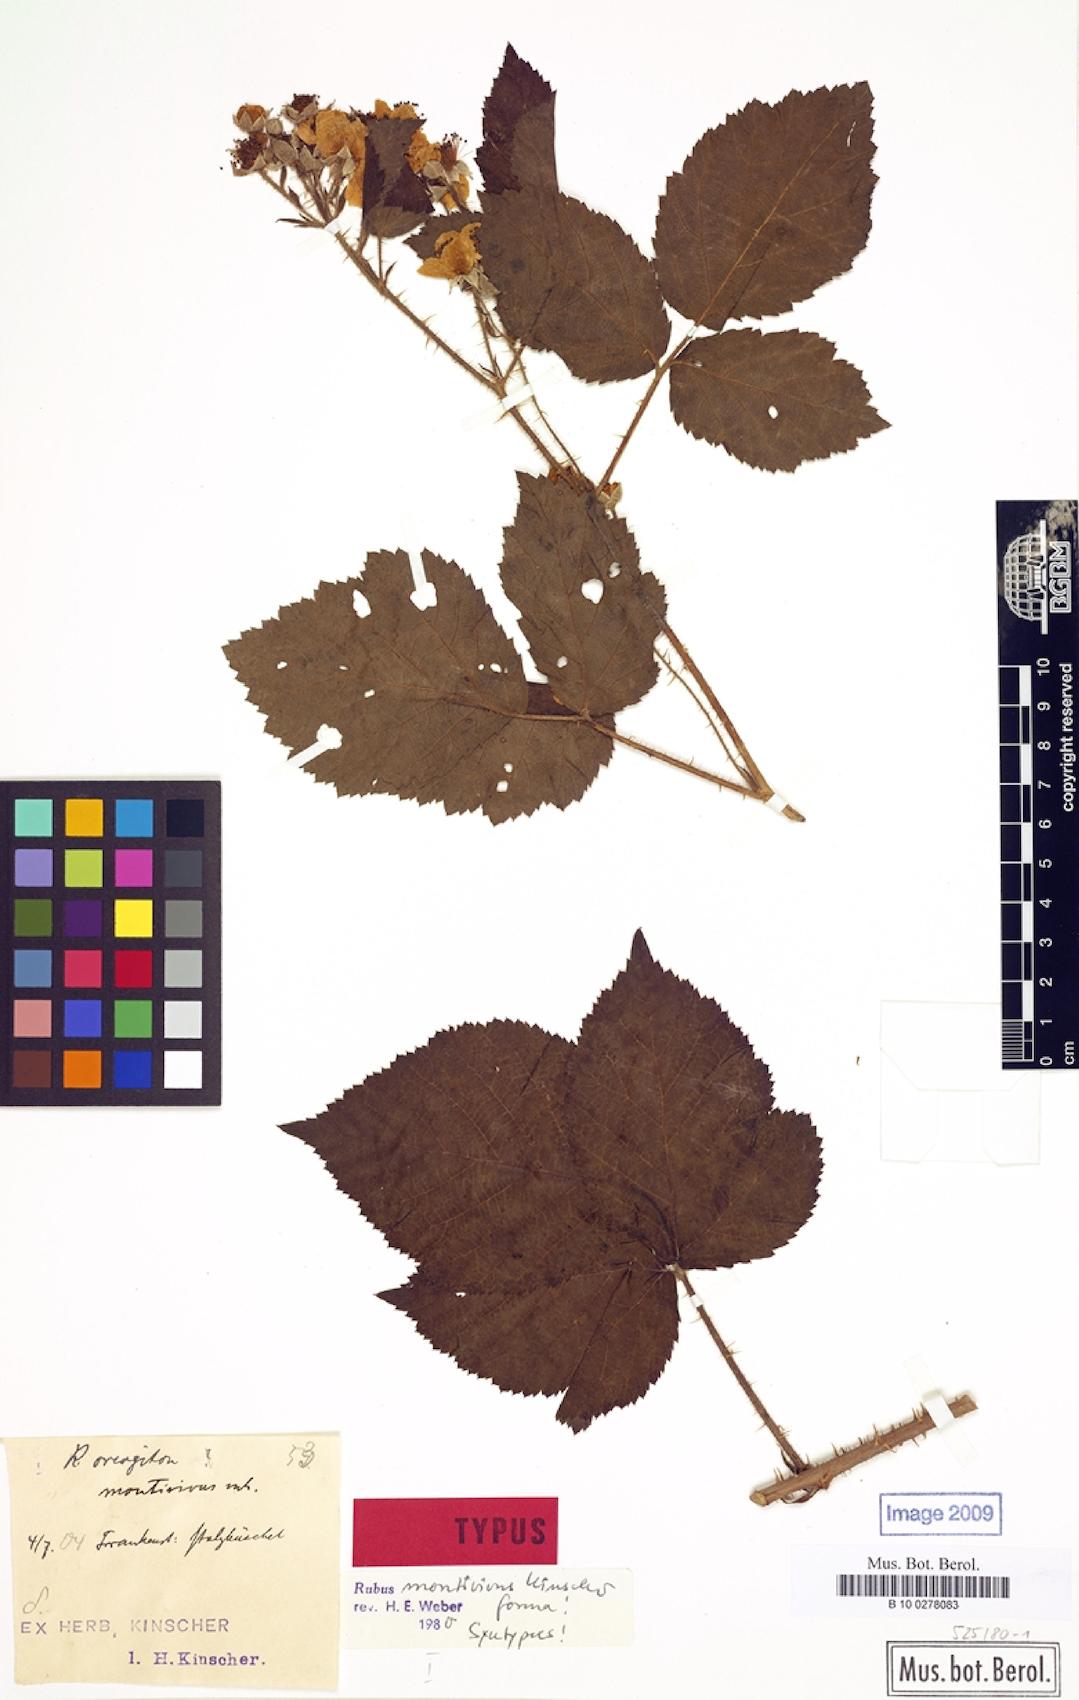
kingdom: Plantae
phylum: Tracheophyta
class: Magnoliopsida
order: Rosales
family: Rosaceae
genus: Rubus
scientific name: Rubus dollnensis
